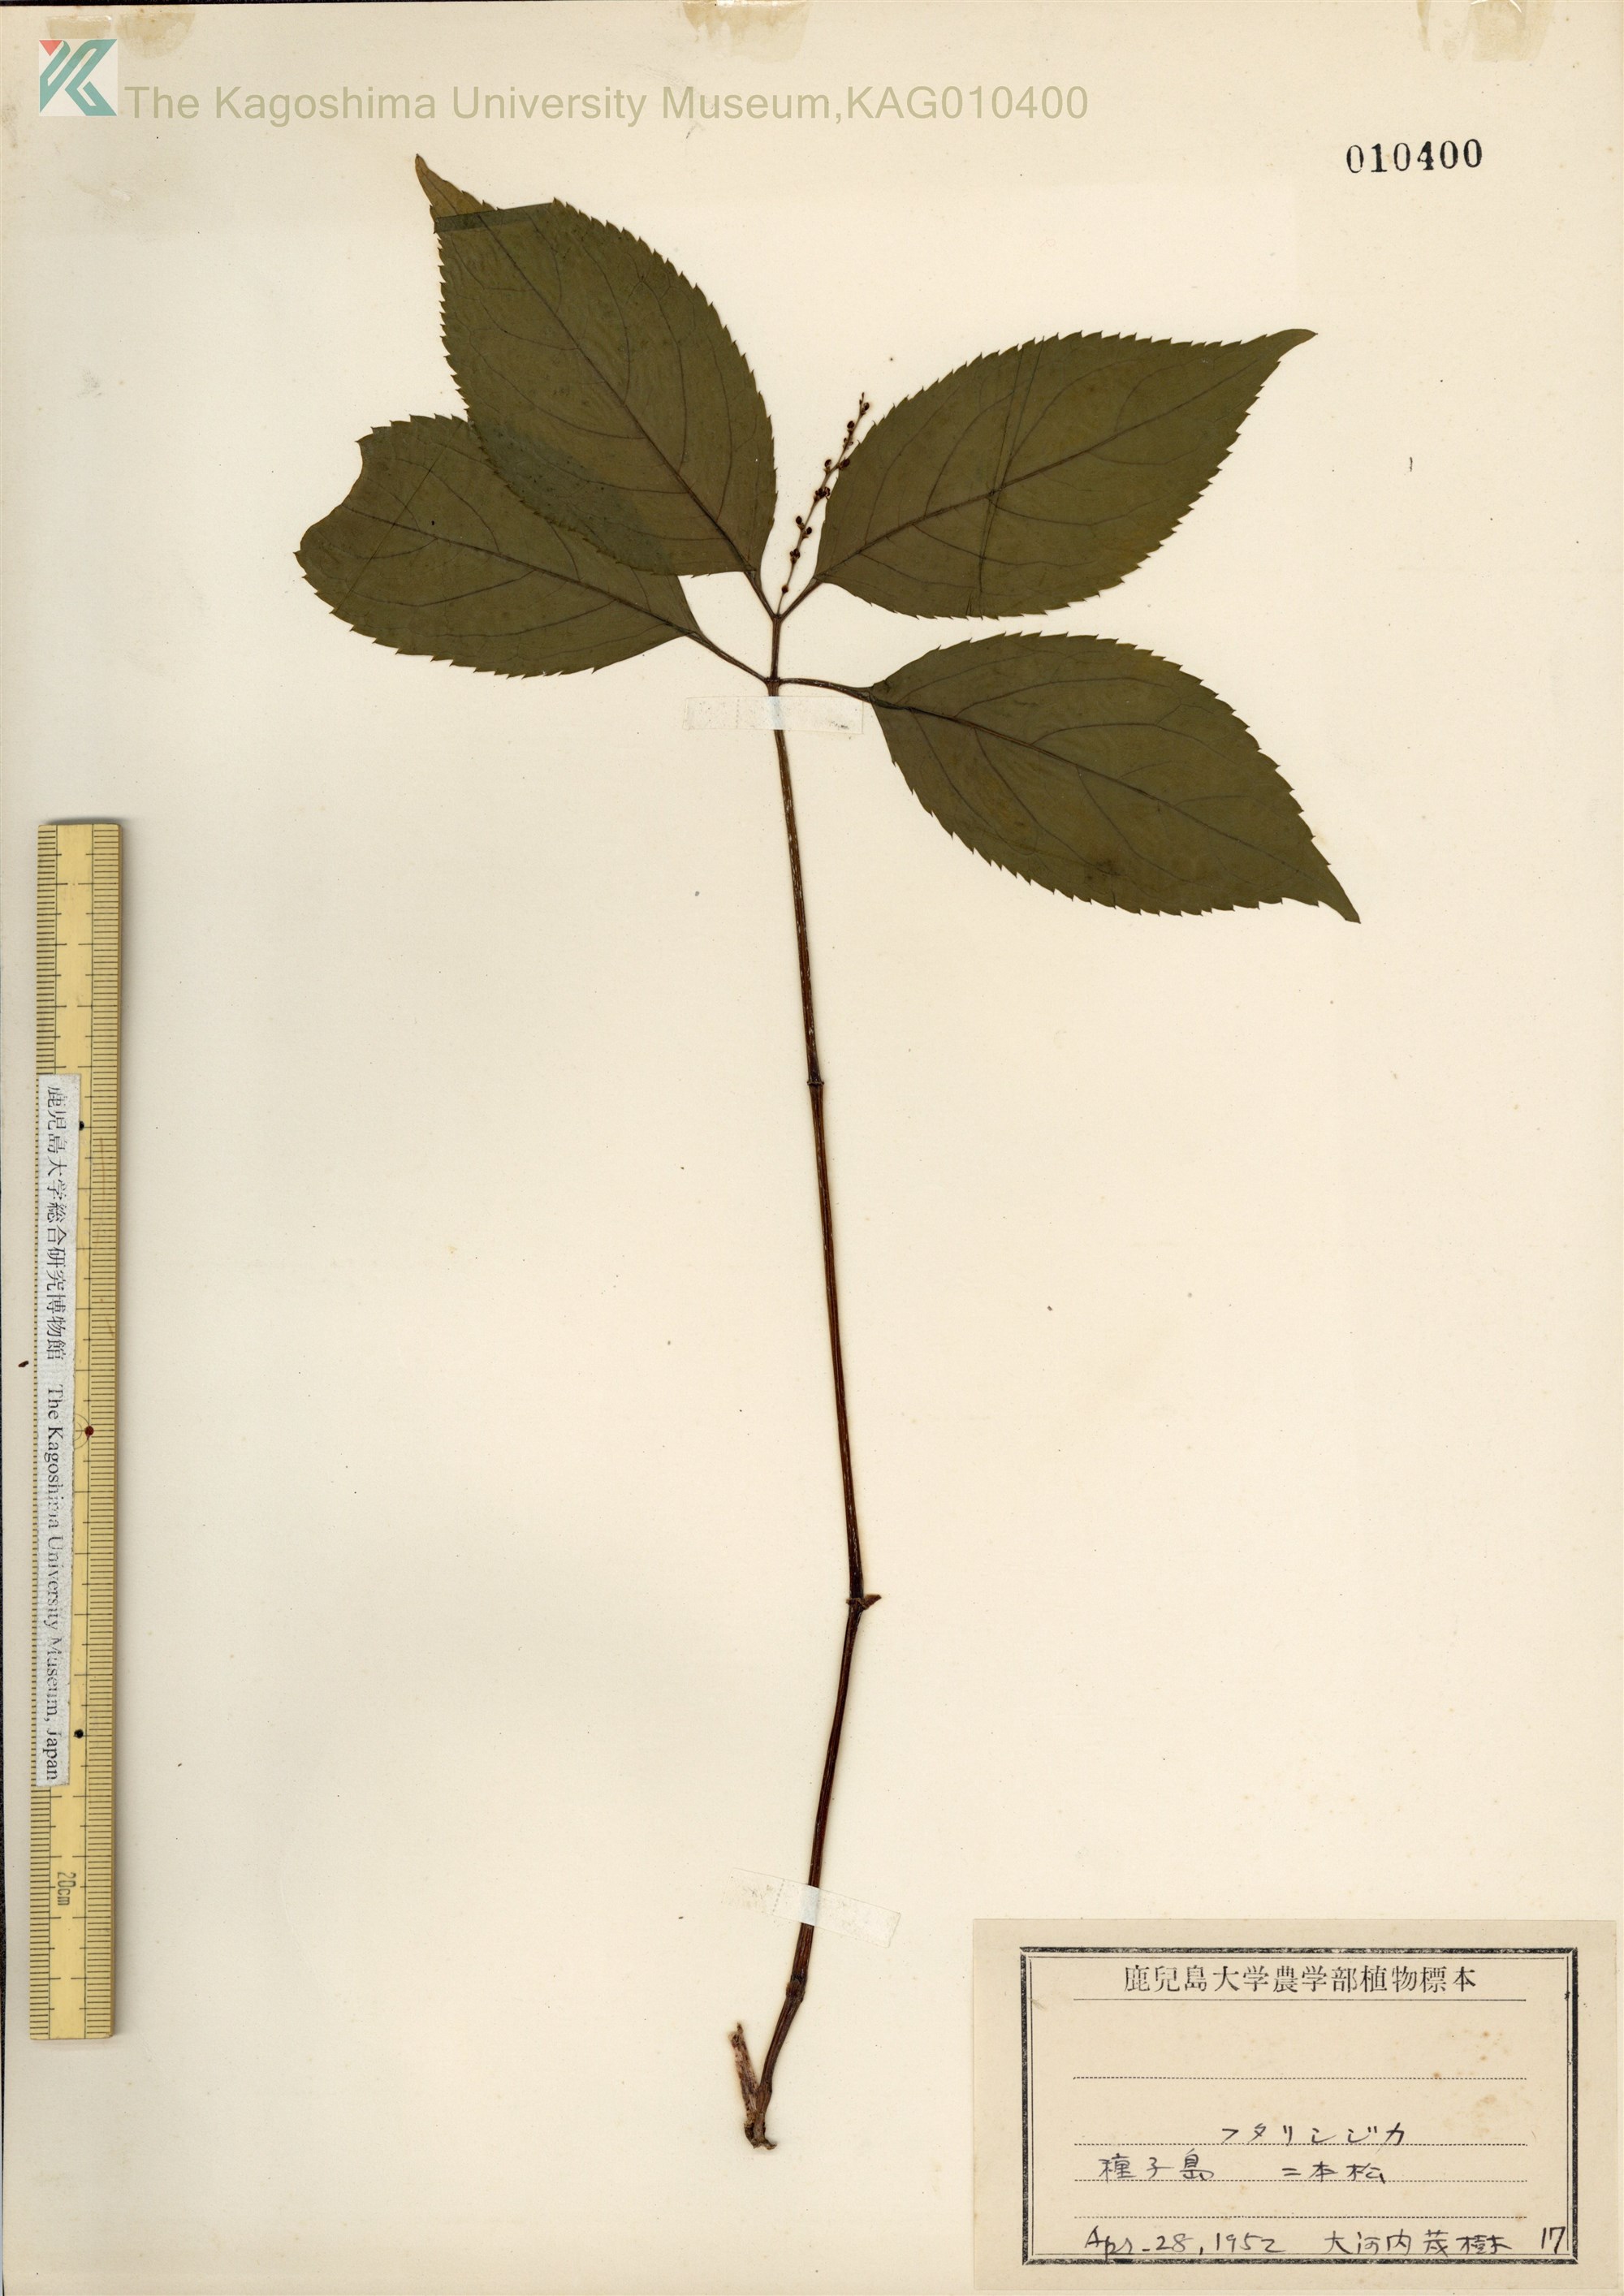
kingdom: Plantae
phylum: Tracheophyta
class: Magnoliopsida
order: Chloranthales
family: Chloranthaceae
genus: Chloranthus
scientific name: Chloranthus serratus
